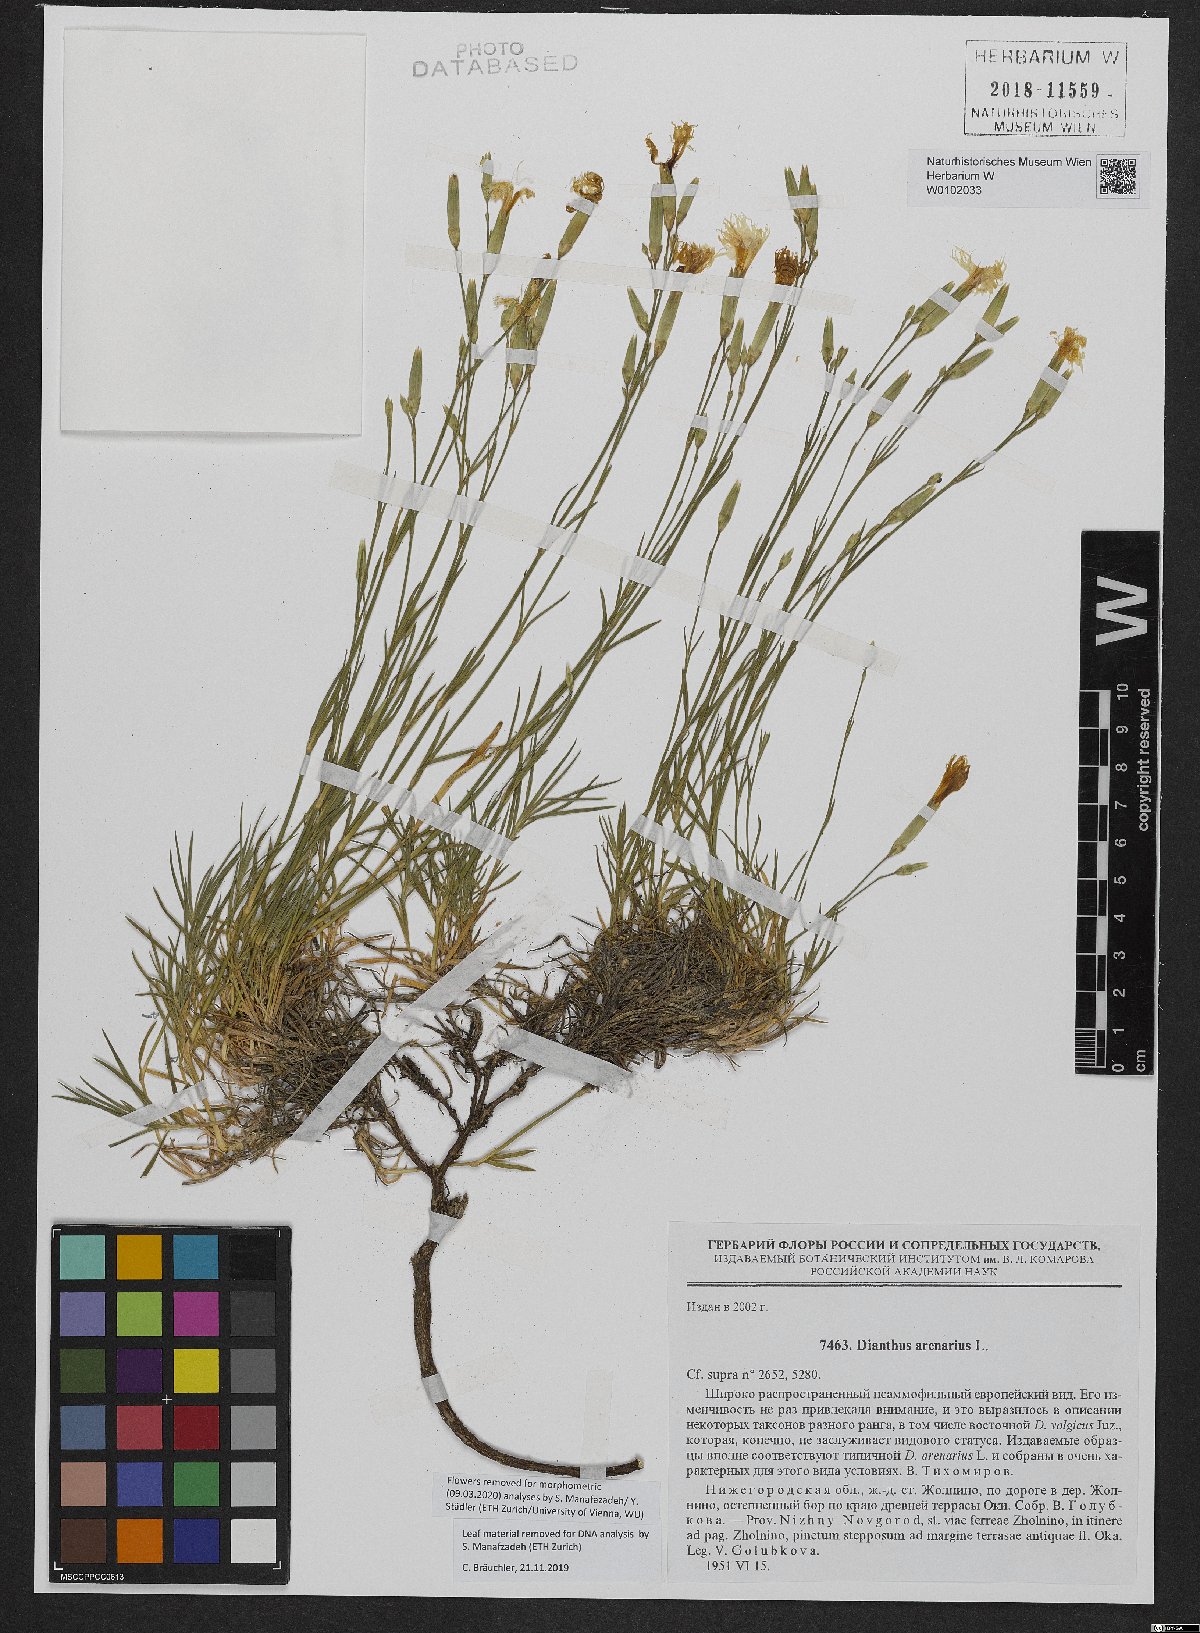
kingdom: Plantae
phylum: Tracheophyta
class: Magnoliopsida
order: Caryophyllales
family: Caryophyllaceae
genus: Dianthus
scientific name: Dianthus arenarius
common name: Stone pink
